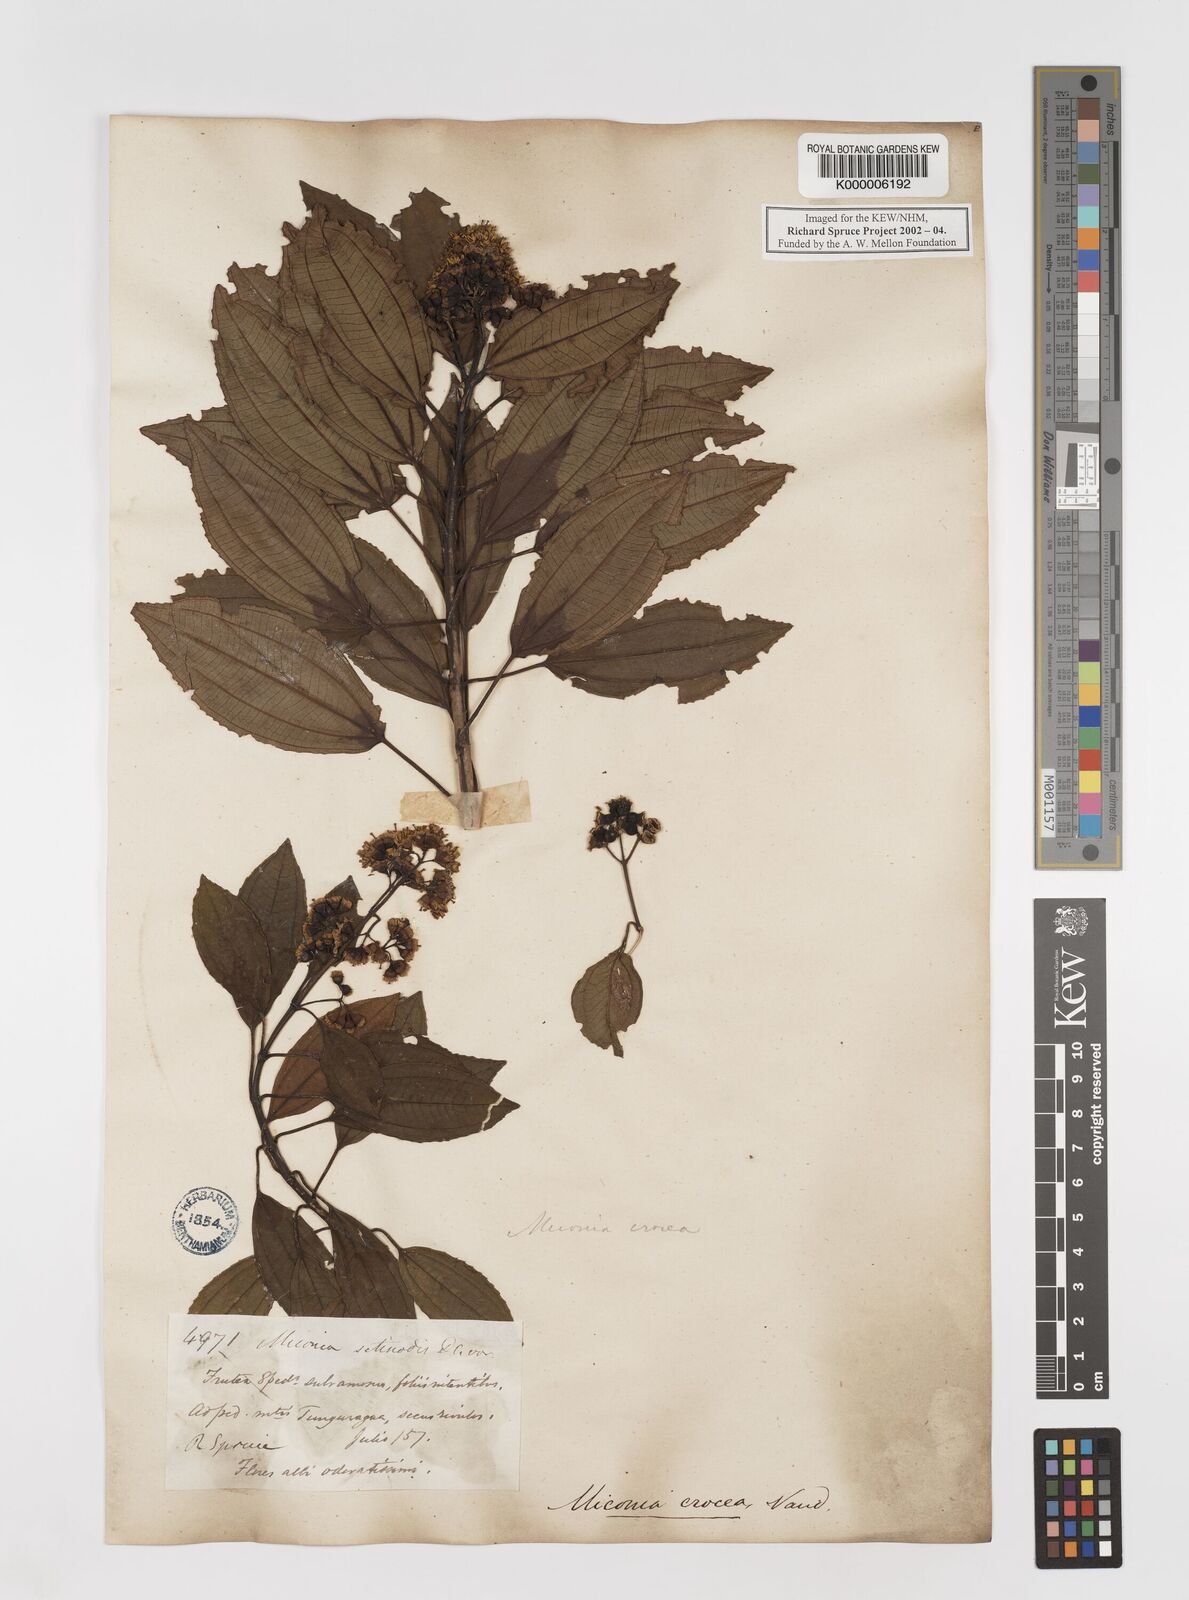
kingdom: Plantae
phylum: Tracheophyta
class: Magnoliopsida
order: Myrtales
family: Melastomataceae
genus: Miconia
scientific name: Miconia crocea
